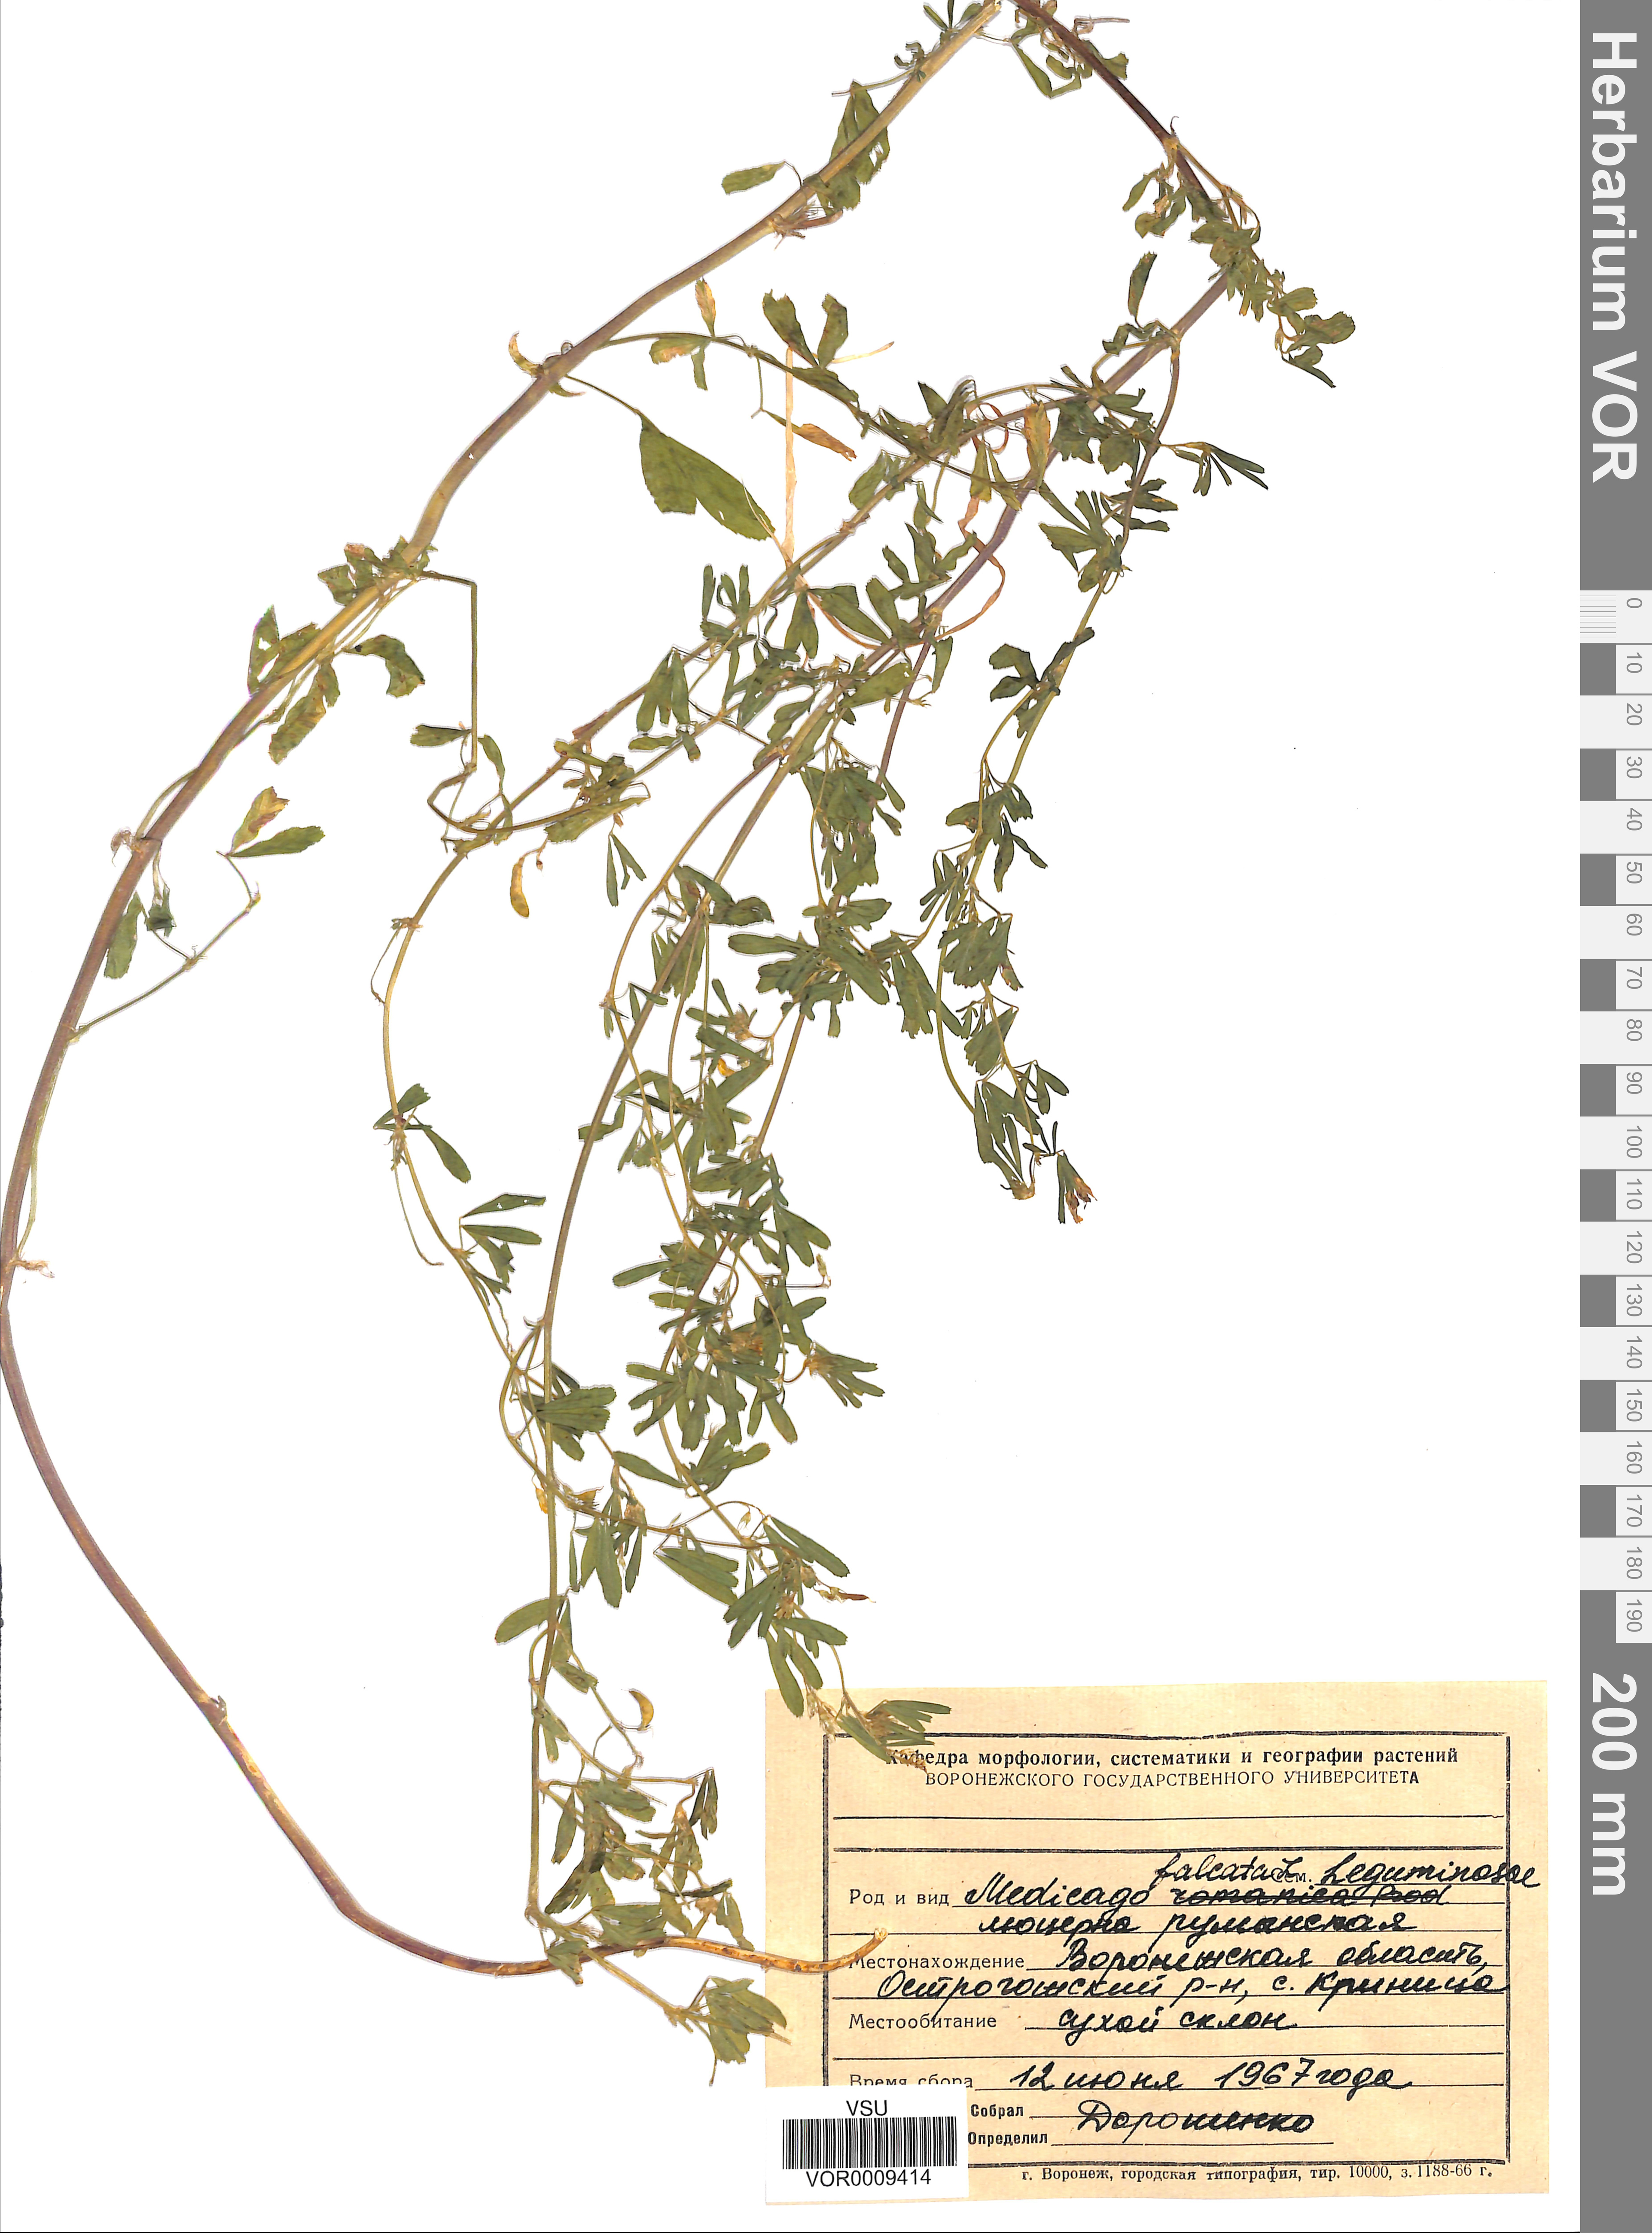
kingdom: Plantae
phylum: Tracheophyta
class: Magnoliopsida
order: Fabales
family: Fabaceae
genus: Medicago
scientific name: Medicago falcata
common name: Sickle medick
